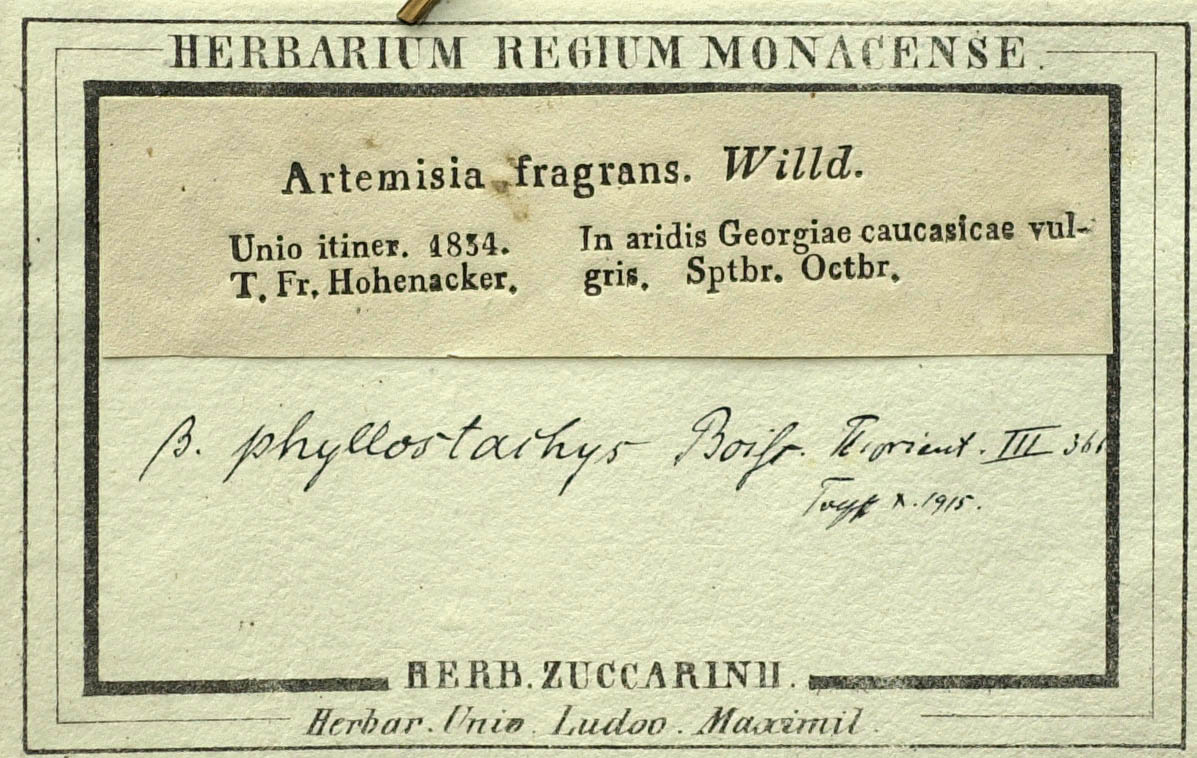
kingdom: Plantae
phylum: Tracheophyta
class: Magnoliopsida
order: Asterales
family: Asteraceae
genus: Artemisia
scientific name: Artemisia fragrans
